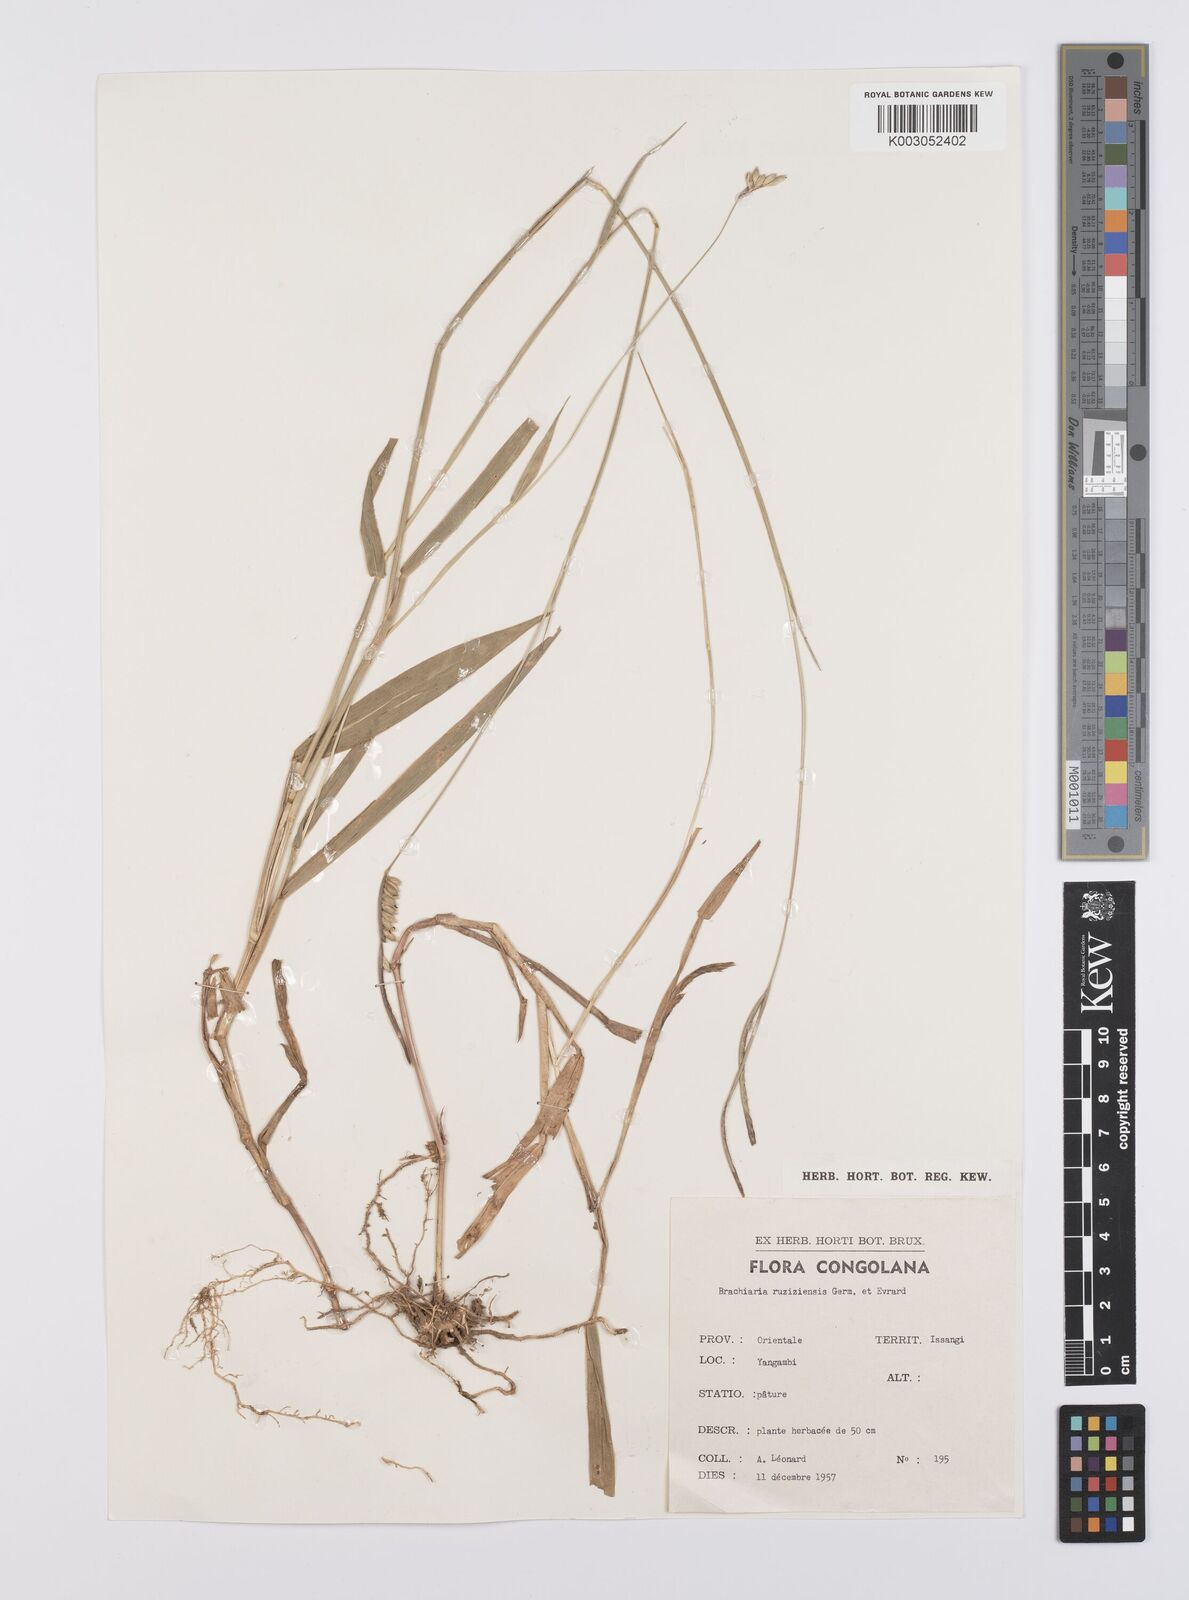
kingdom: Plantae
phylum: Tracheophyta
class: Liliopsida
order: Poales
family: Poaceae
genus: Urochloa
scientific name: Urochloa eminii
